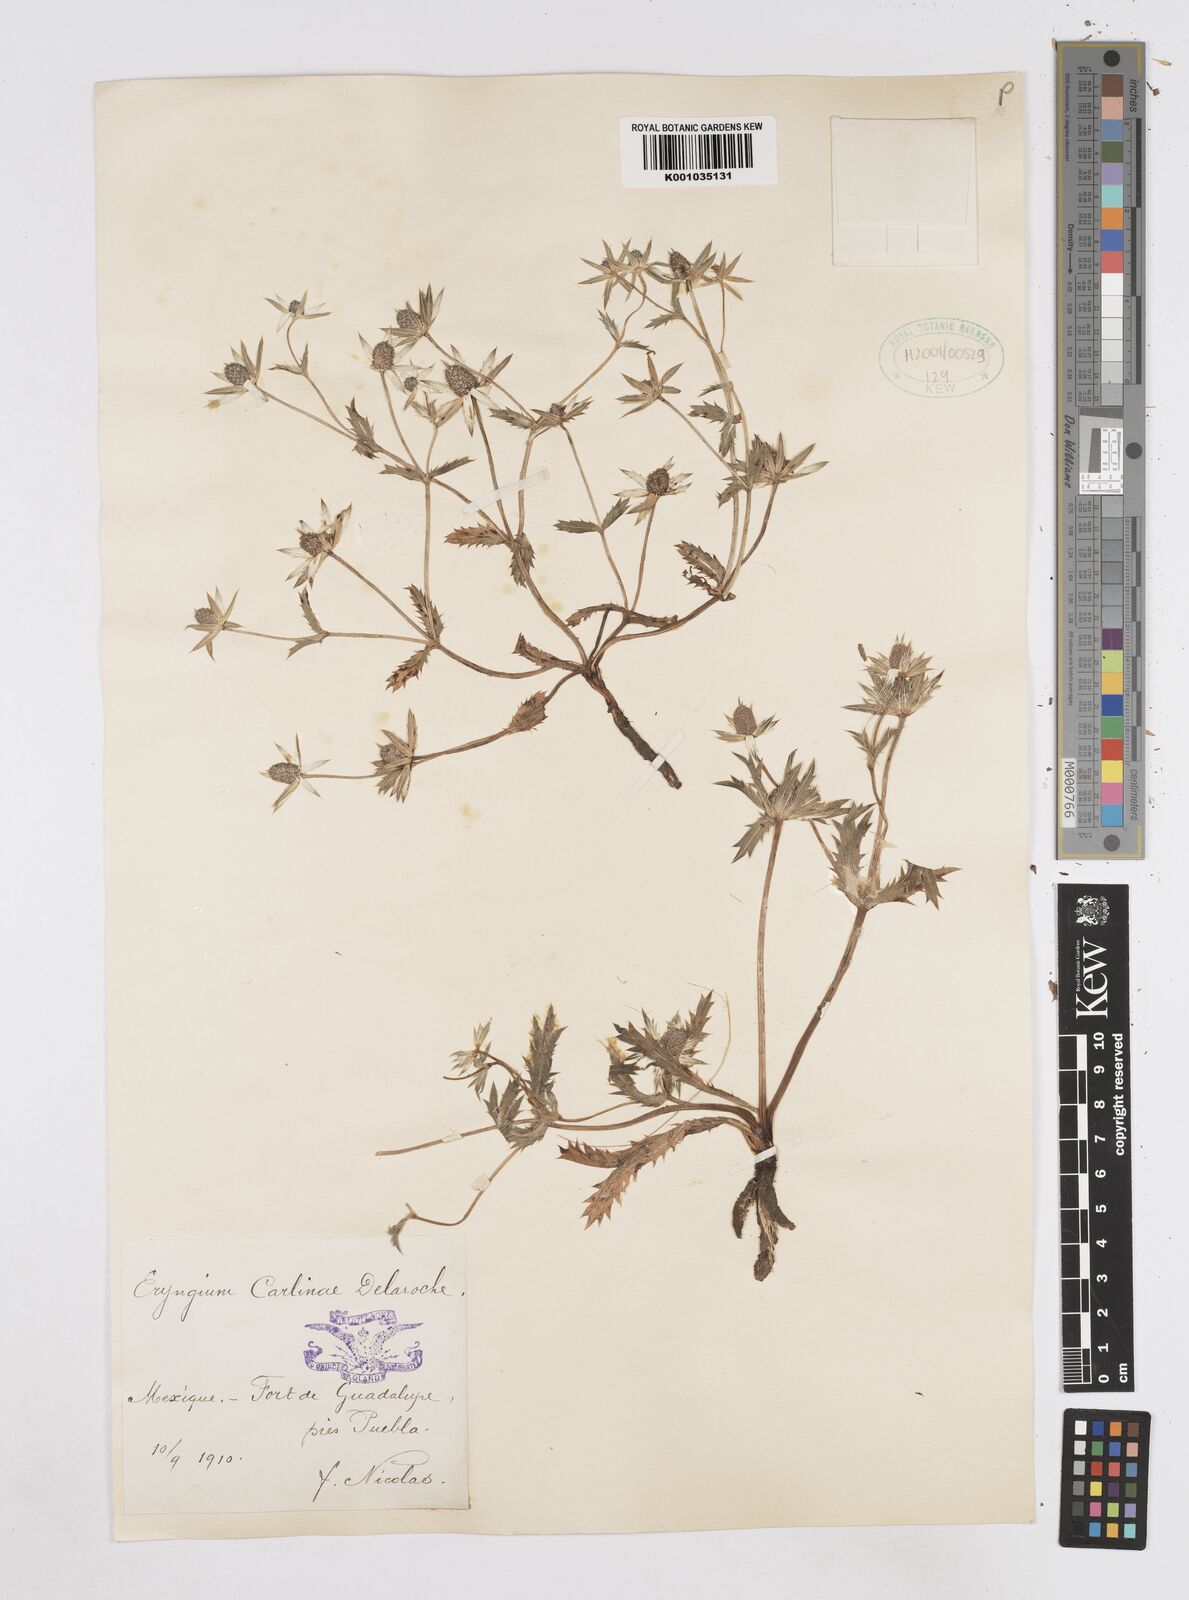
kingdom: Plantae
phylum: Tracheophyta
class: Magnoliopsida
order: Apiales
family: Apiaceae
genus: Eryngium
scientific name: Eryngium carlinae
